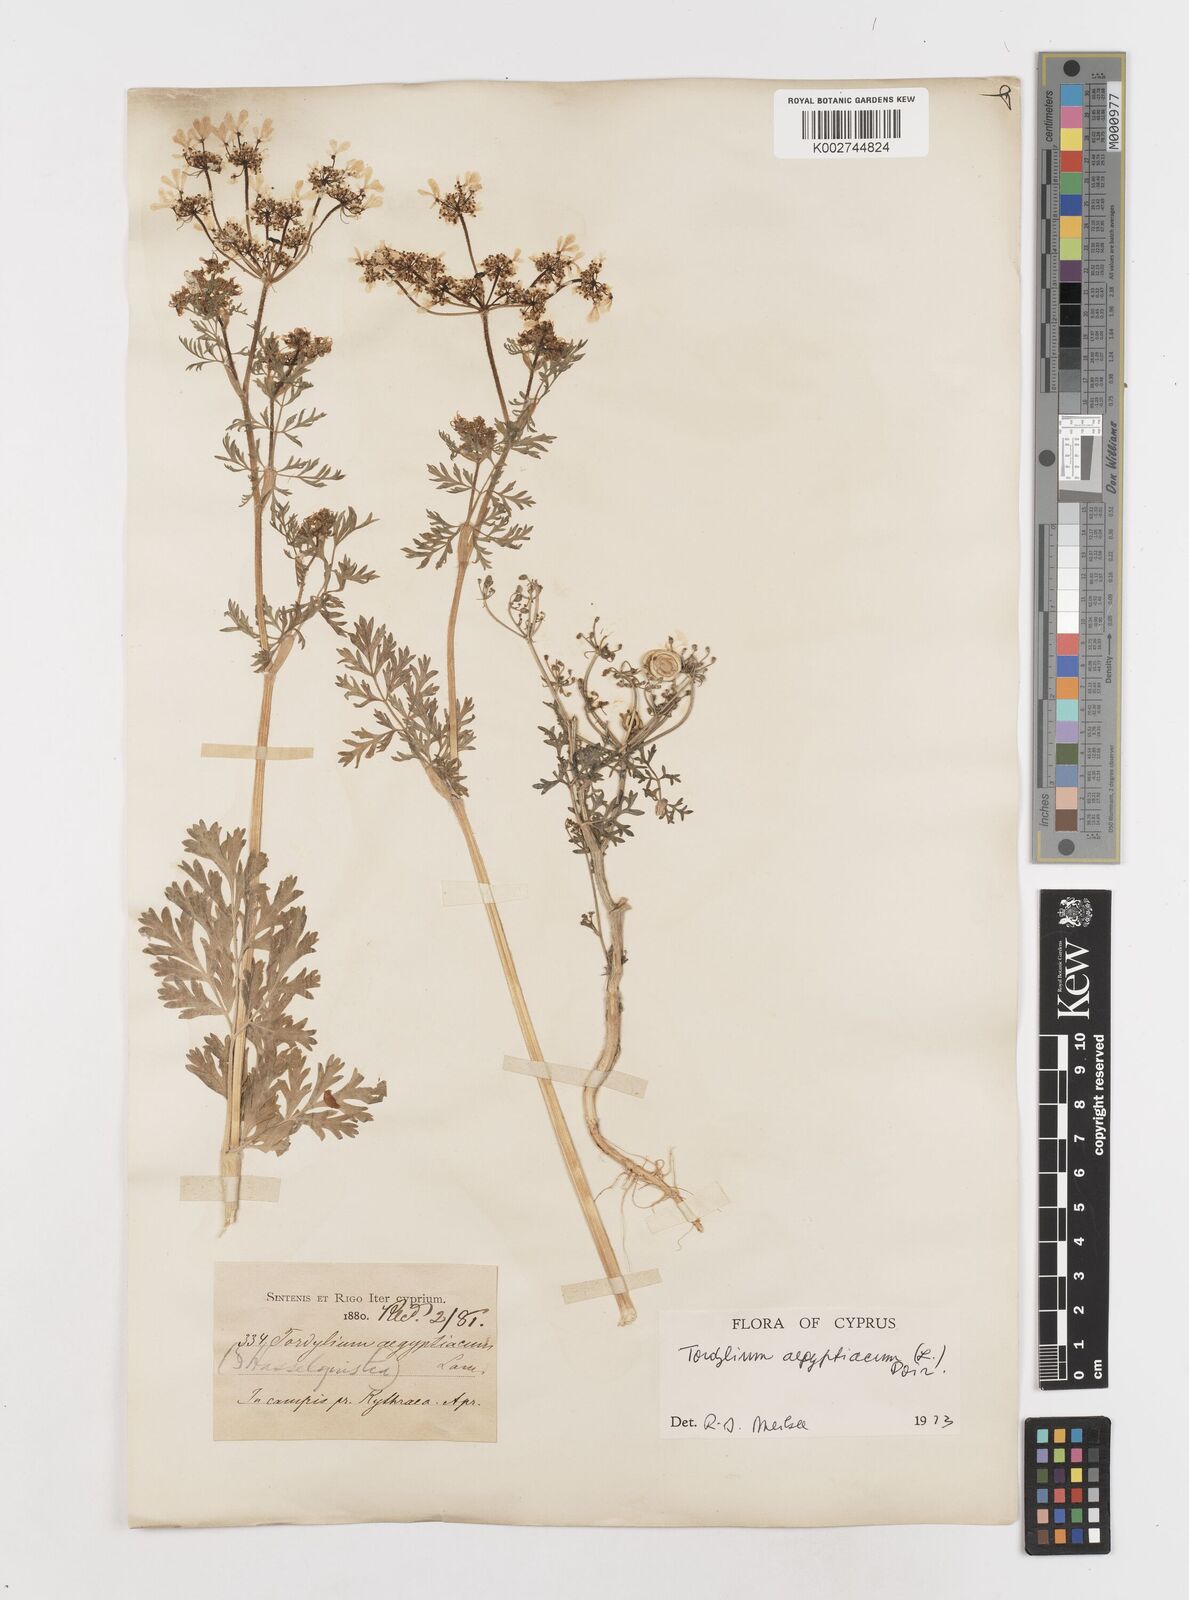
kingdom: Plantae
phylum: Tracheophyta
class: Magnoliopsida
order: Apiales
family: Apiaceae
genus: Tordylium
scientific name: Tordylium aegyptiacum
